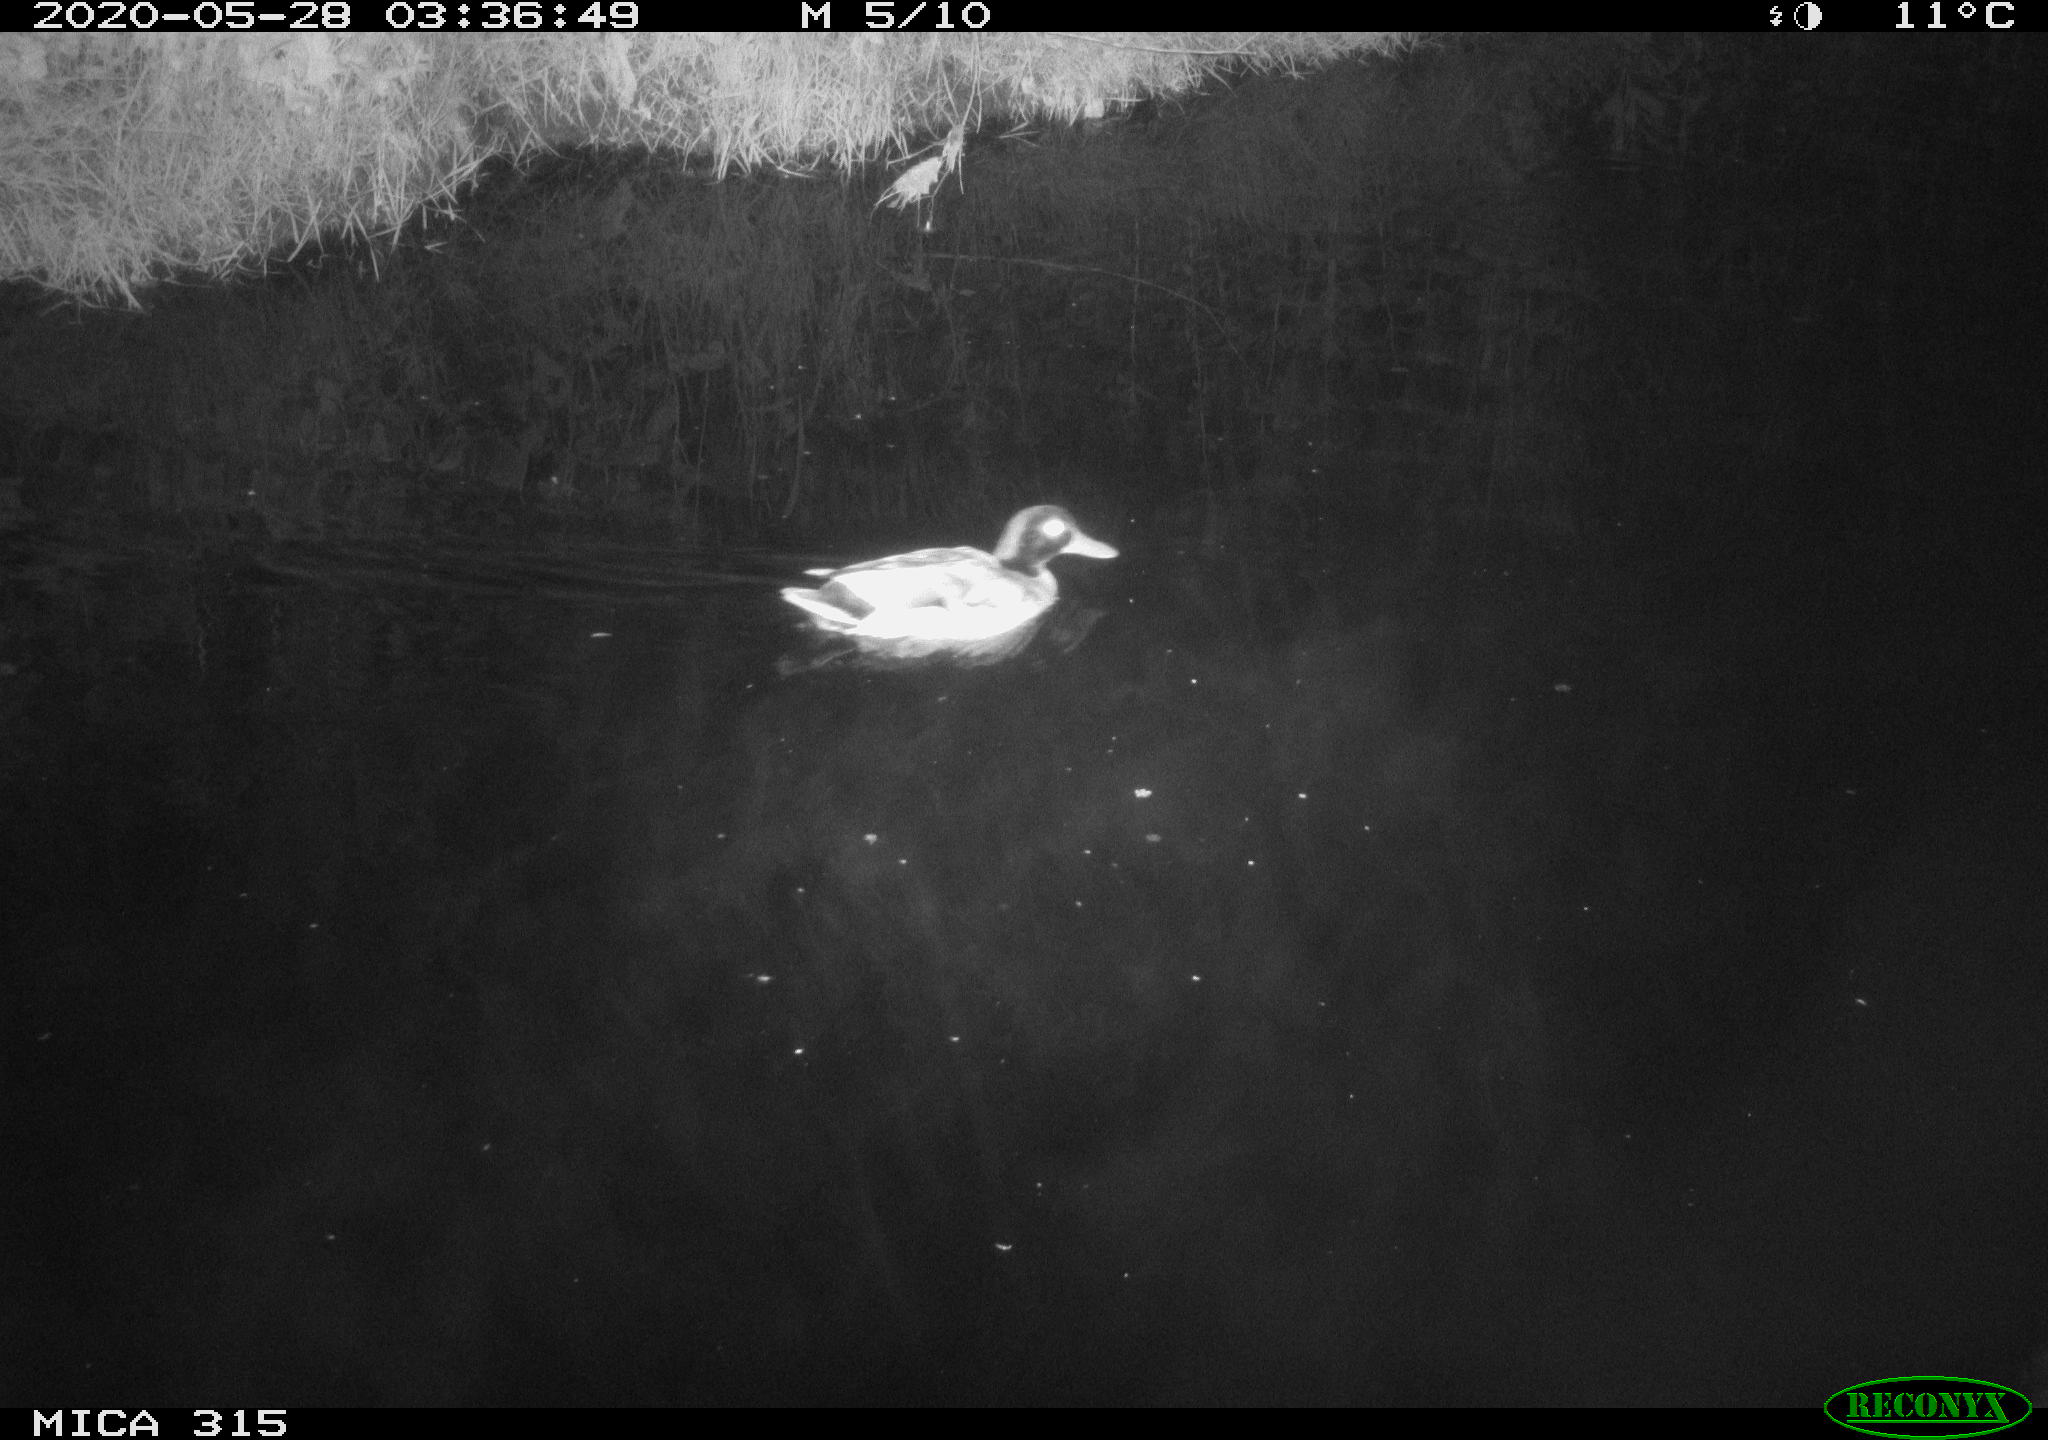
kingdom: Animalia
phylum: Chordata
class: Aves
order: Anseriformes
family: Anatidae
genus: Anas
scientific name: Anas platyrhynchos
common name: Mallard
